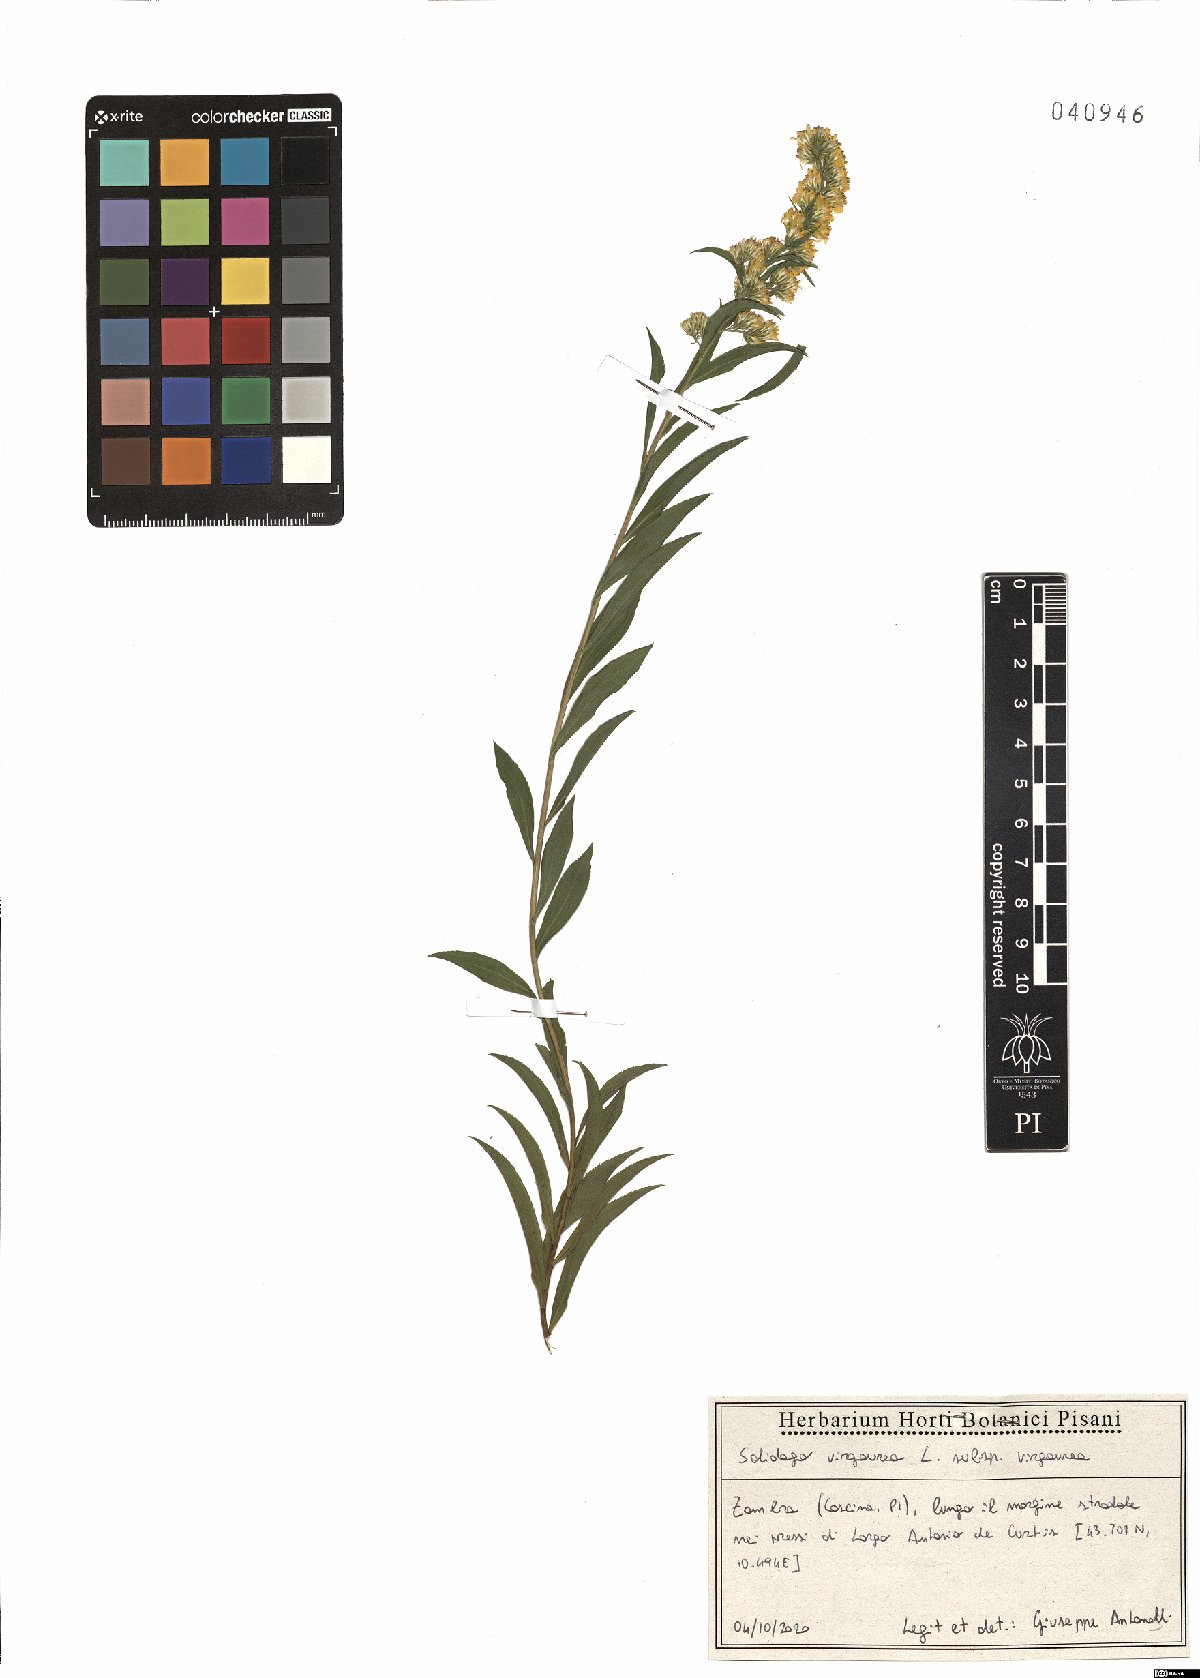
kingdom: Plantae
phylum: Tracheophyta
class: Magnoliopsida
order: Asterales
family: Asteraceae
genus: Solidago
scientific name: Solidago virgaurea
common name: Goldenrod
